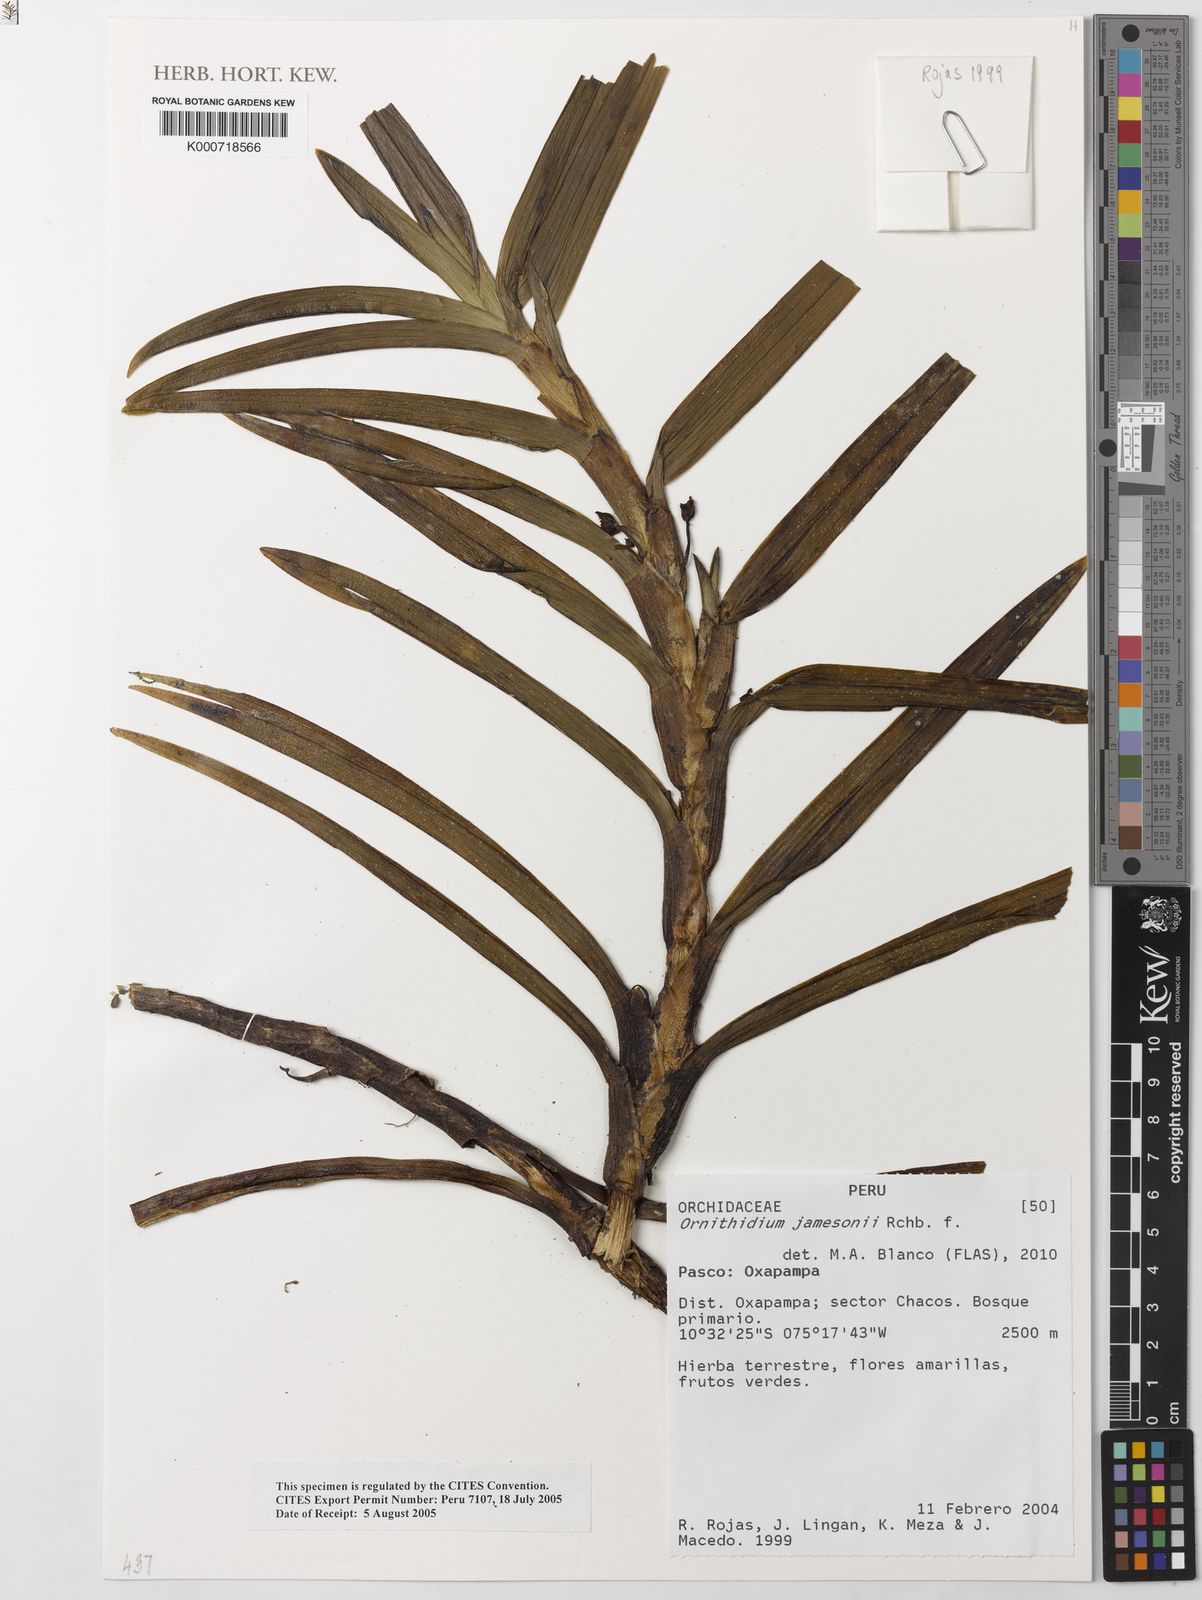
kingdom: Plantae
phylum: Tracheophyta
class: Liliopsida
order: Asparagales
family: Orchidaceae
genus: Maxillaria
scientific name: Maxillaria jamesonii
